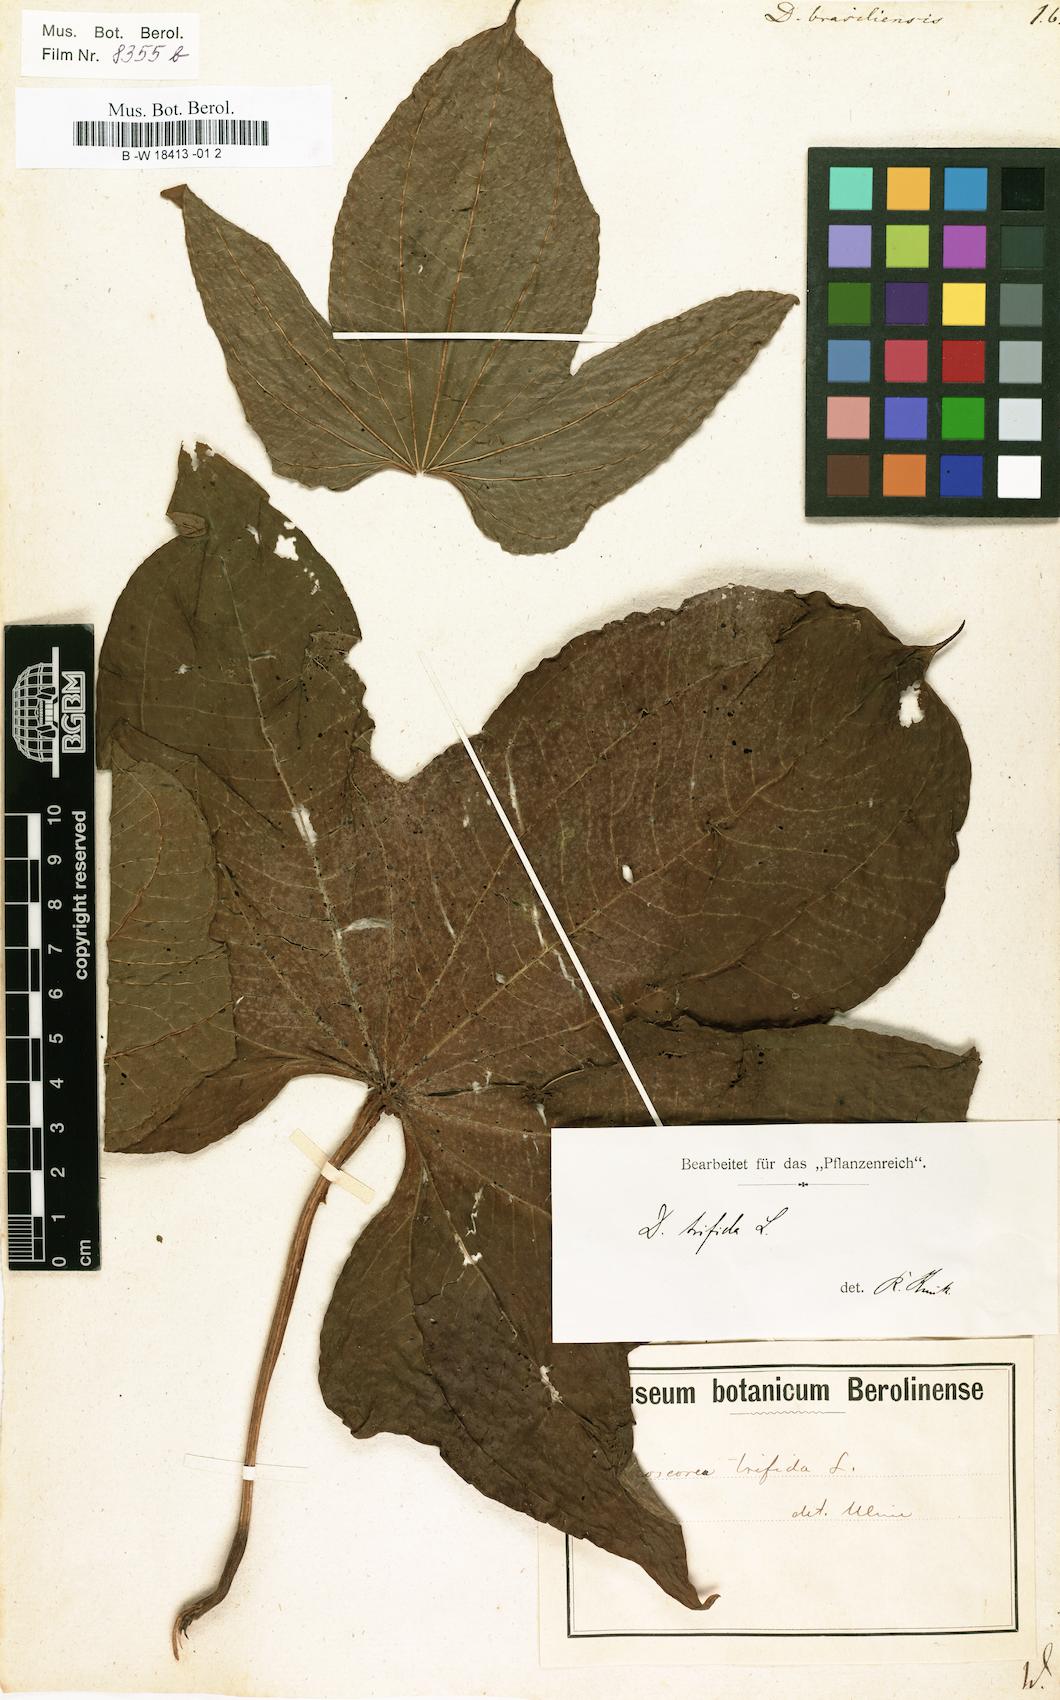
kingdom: Plantae
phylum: Tracheophyta
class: Liliopsida
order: Dioscoreales
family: Dioscoreaceae
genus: Dioscorea
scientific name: Dioscorea trifida
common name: Cush-cush
